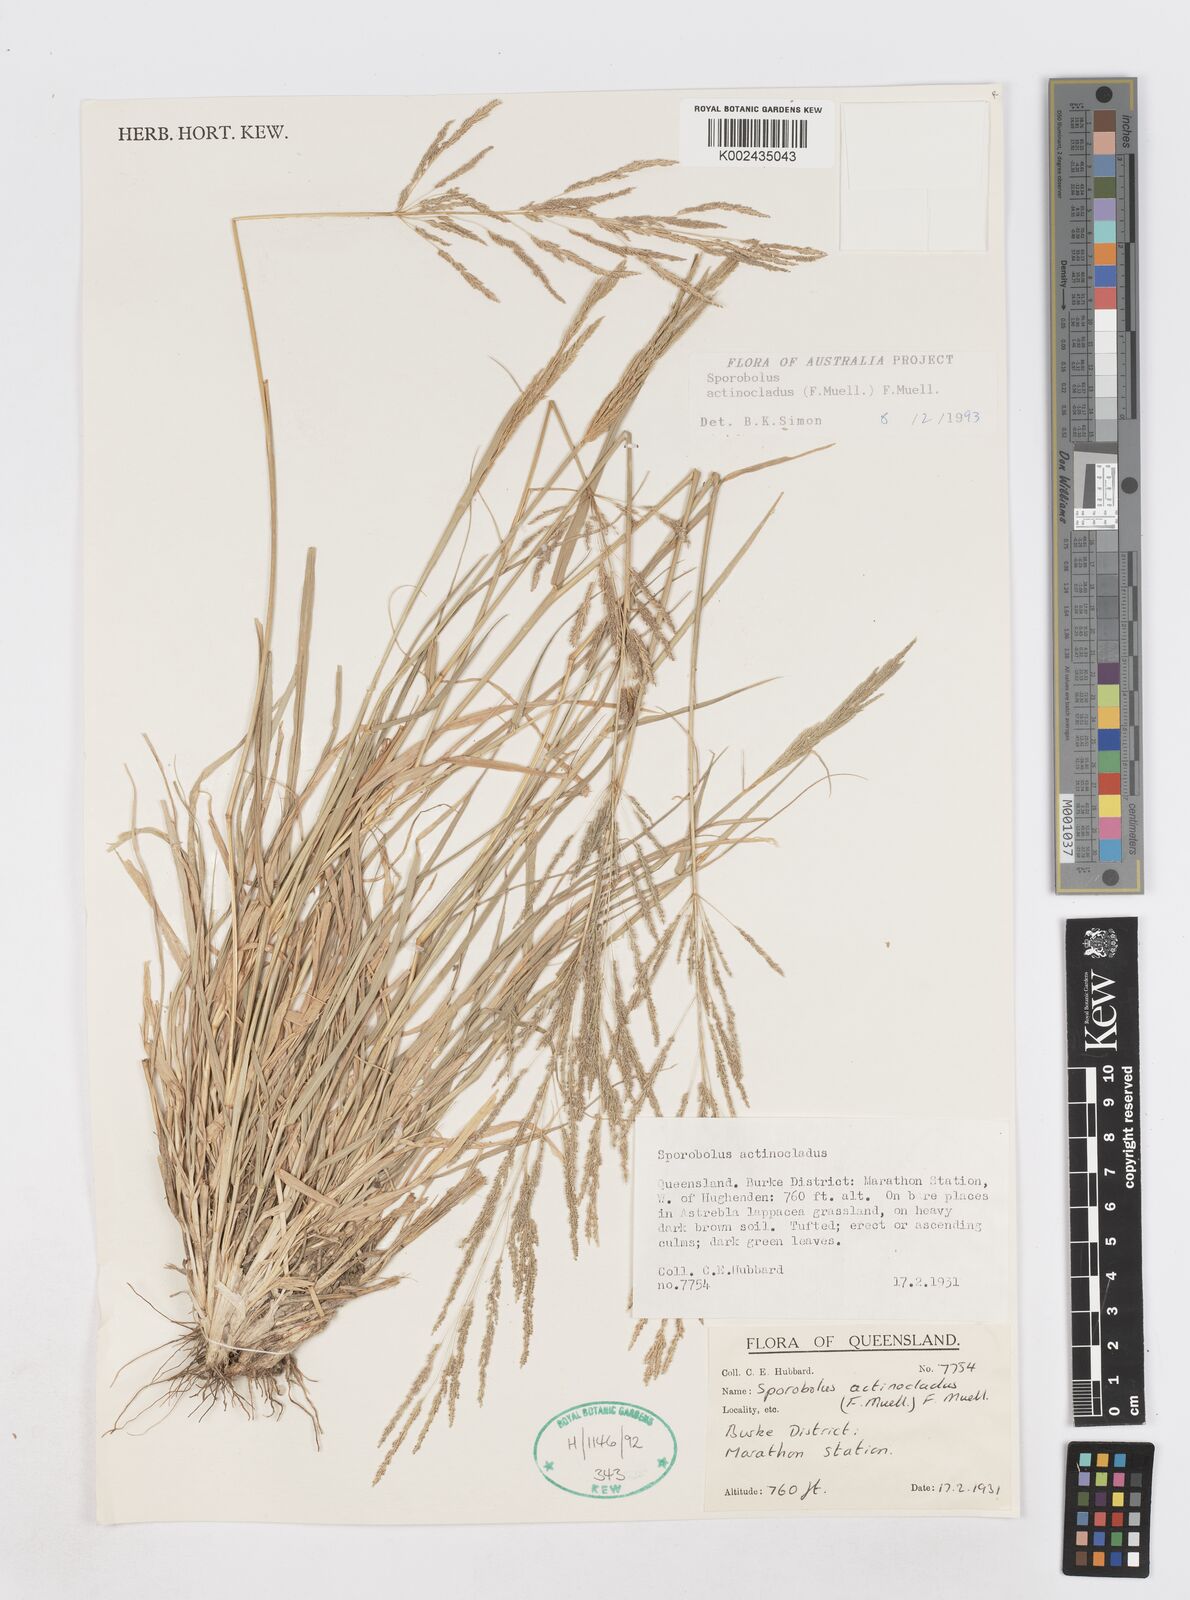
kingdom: Plantae
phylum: Tracheophyta
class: Liliopsida
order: Poales
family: Poaceae
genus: Sporobolus
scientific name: Sporobolus actinocladus
